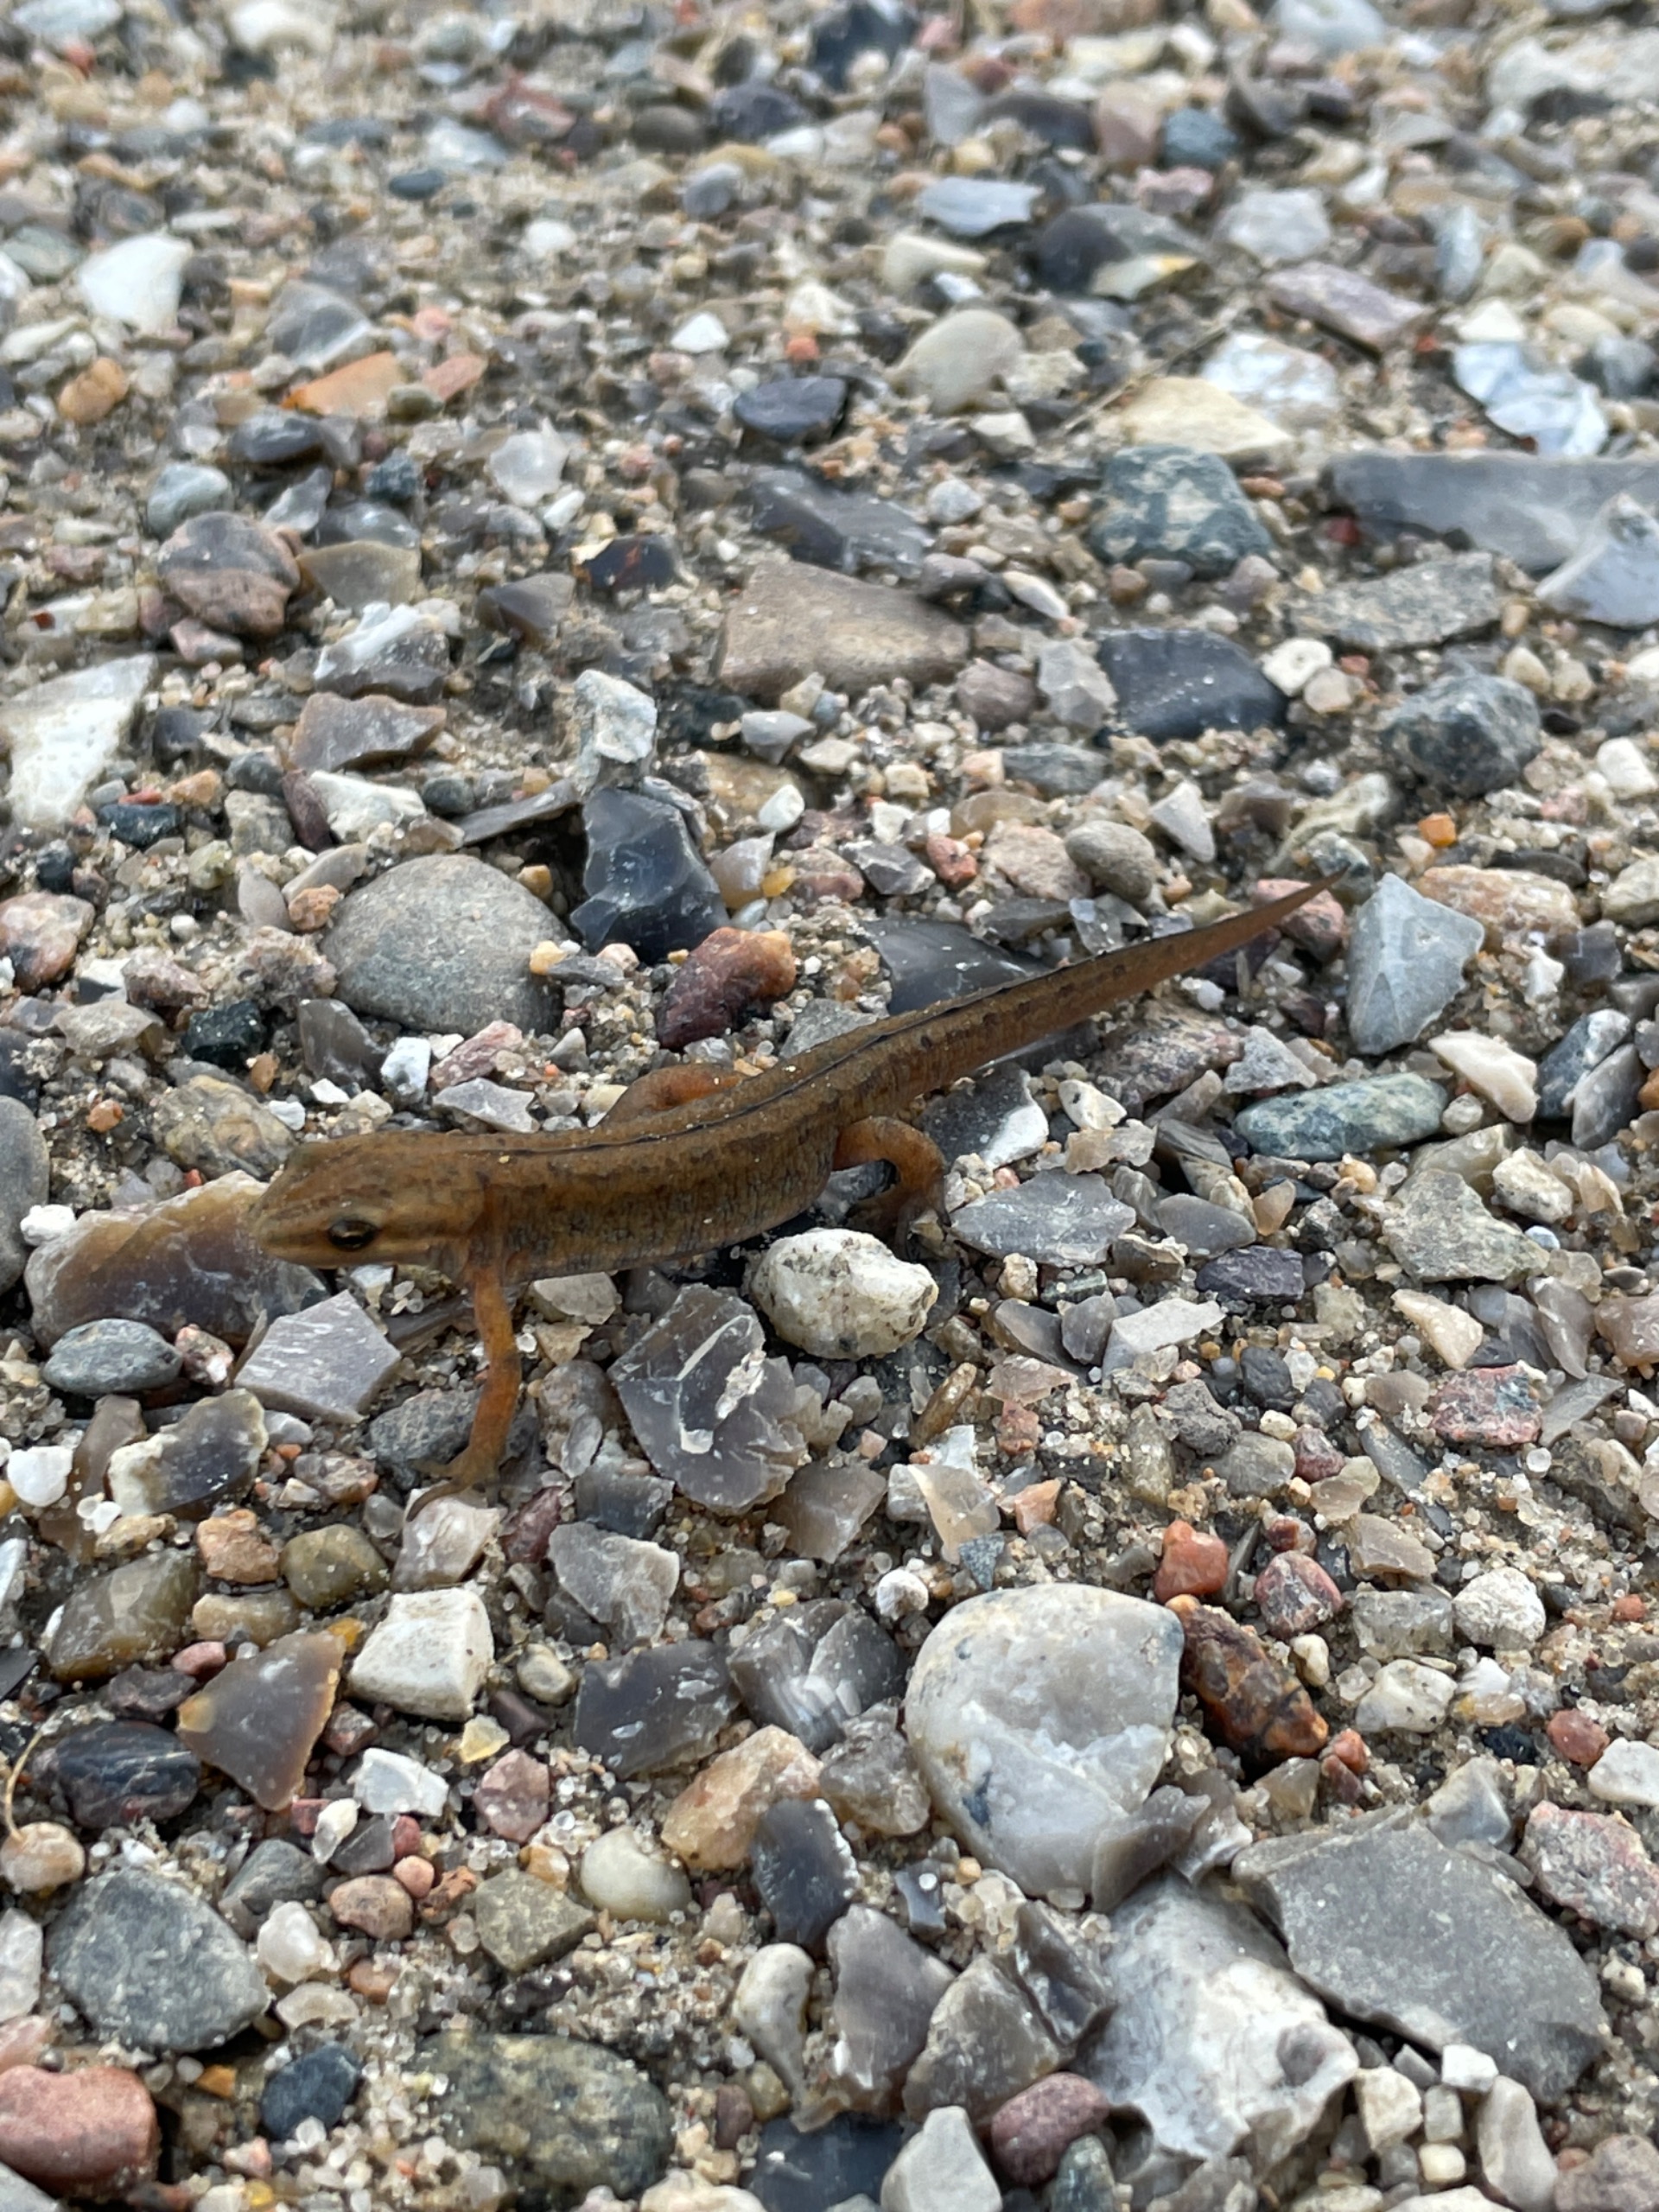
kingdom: Animalia
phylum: Chordata
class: Amphibia
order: Caudata
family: Salamandridae
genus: Lissotriton
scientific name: Lissotriton vulgaris
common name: Lille vandsalamander
